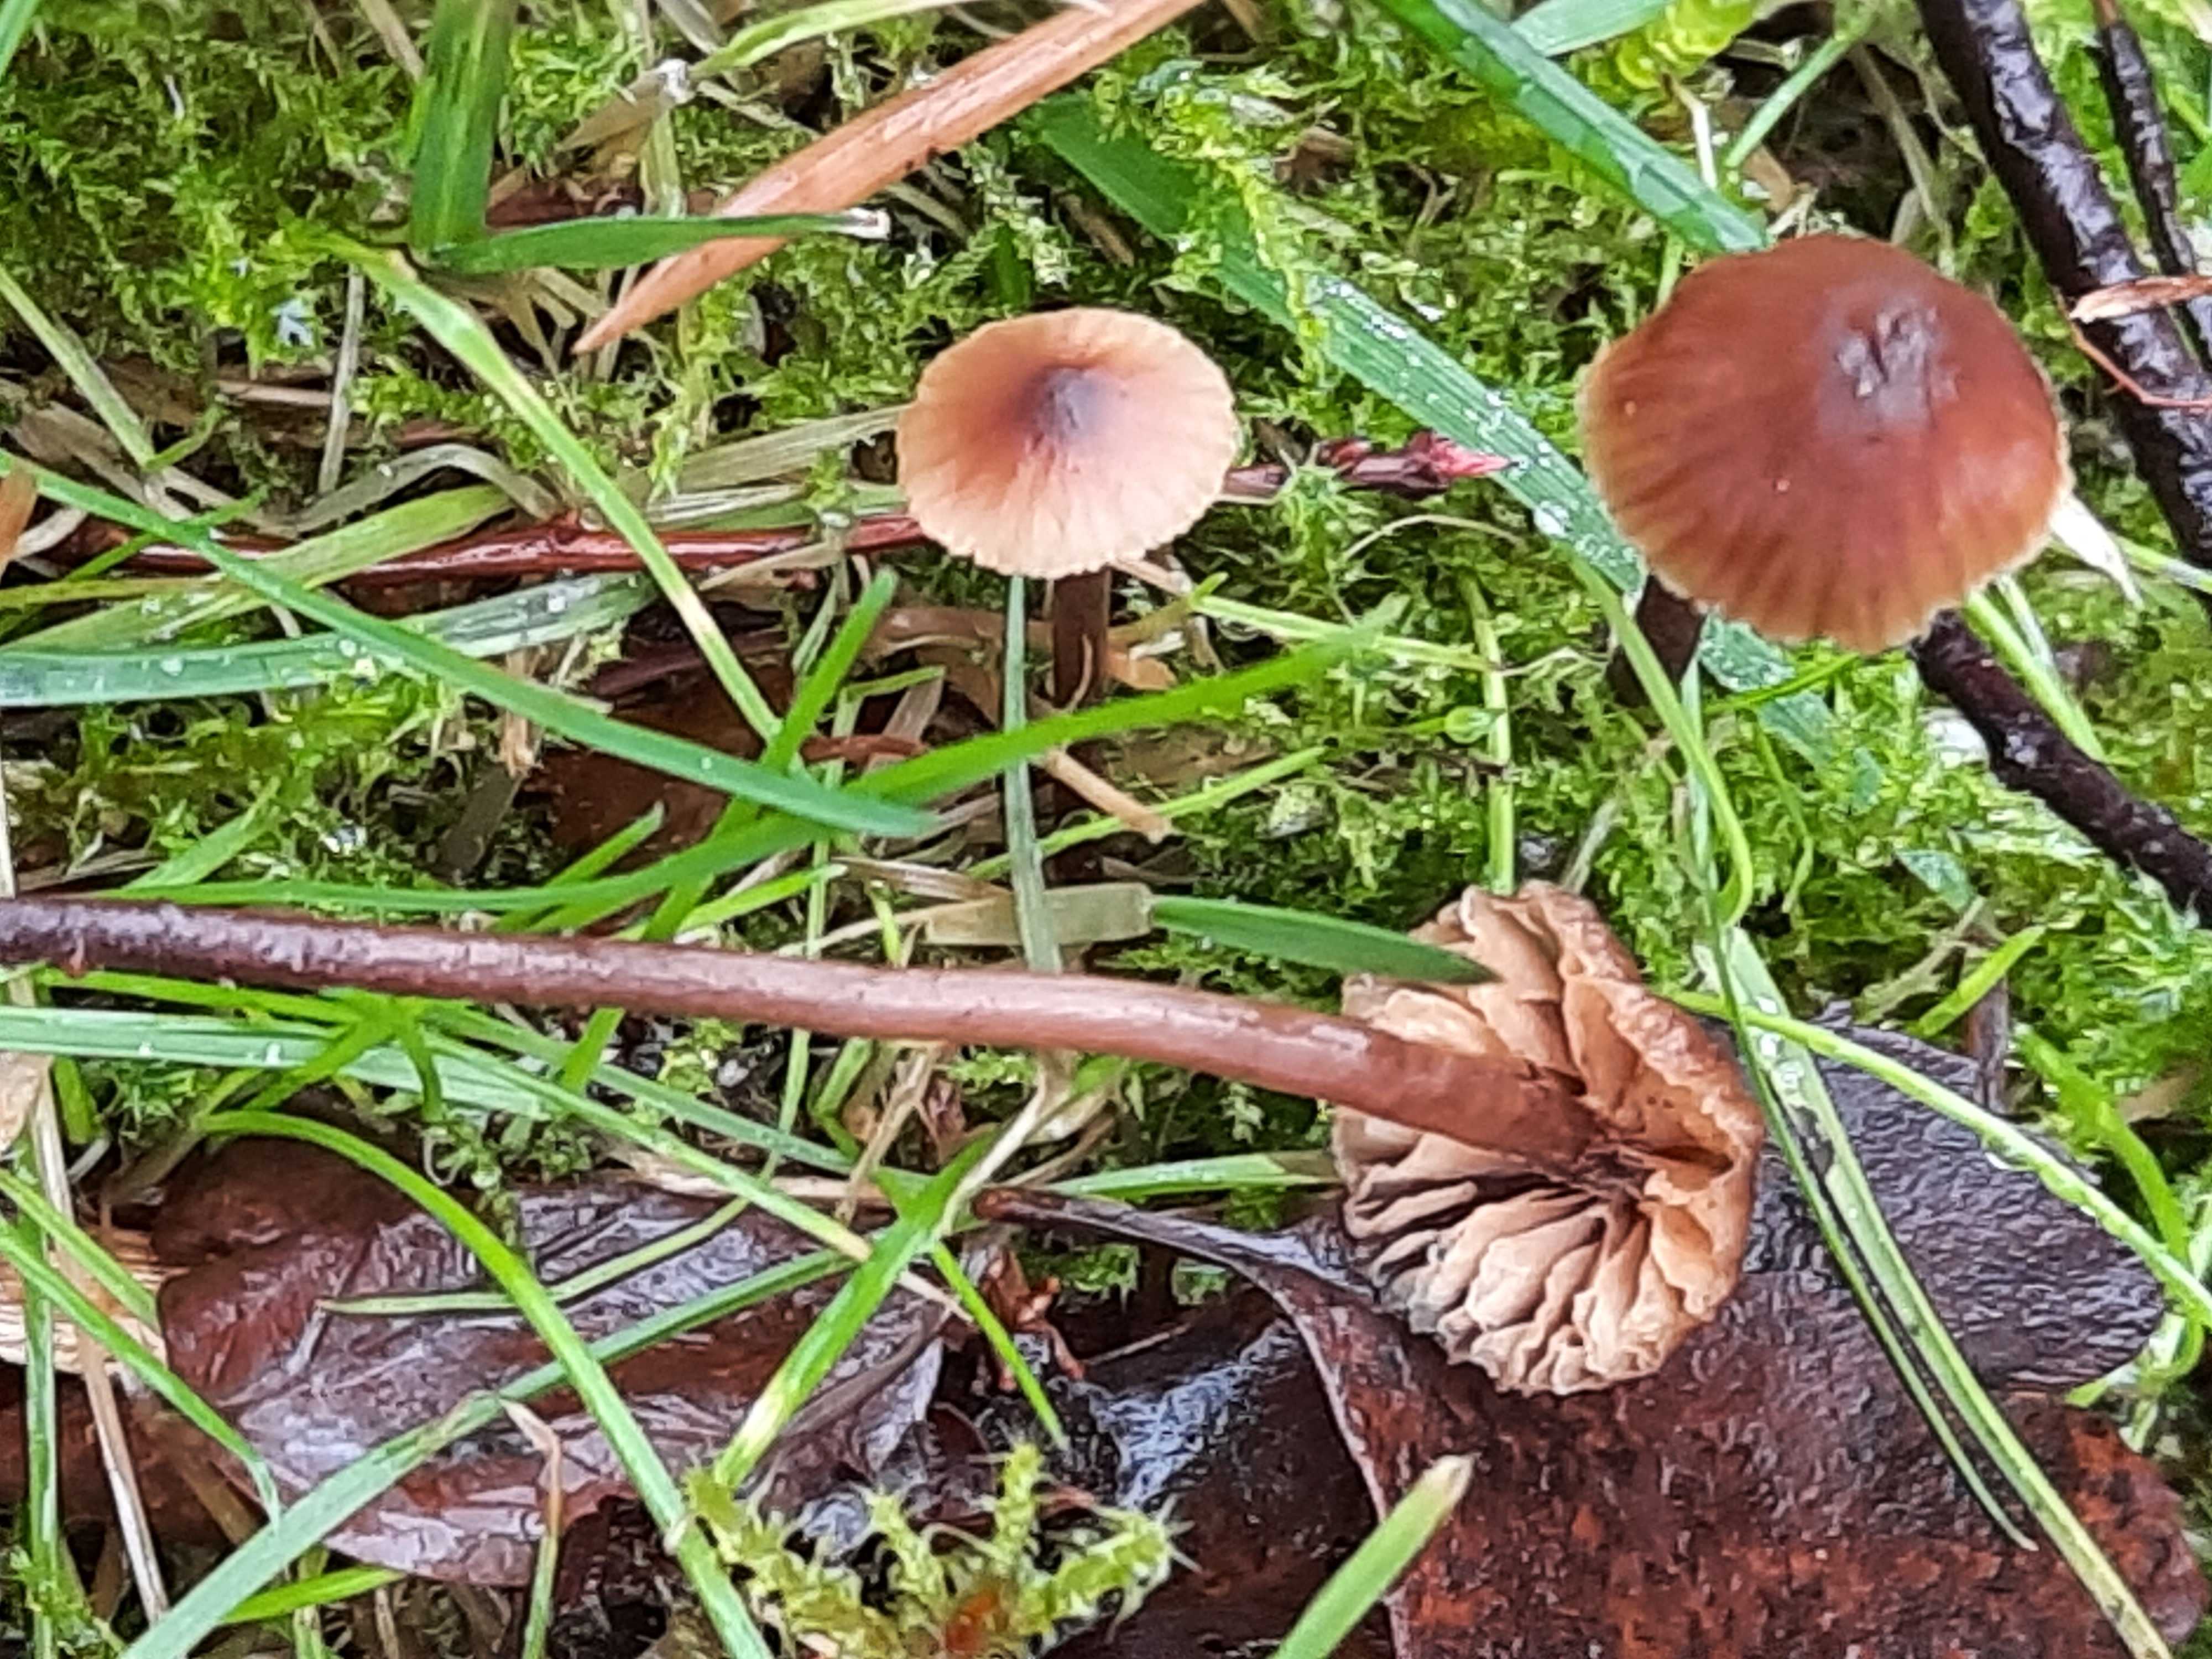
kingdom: Fungi
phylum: Basidiomycota
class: Agaricomycetes
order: Agaricales
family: Macrocystidiaceae
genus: Macrocystidia
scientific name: Macrocystidia cucumis
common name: Cucumber cap
